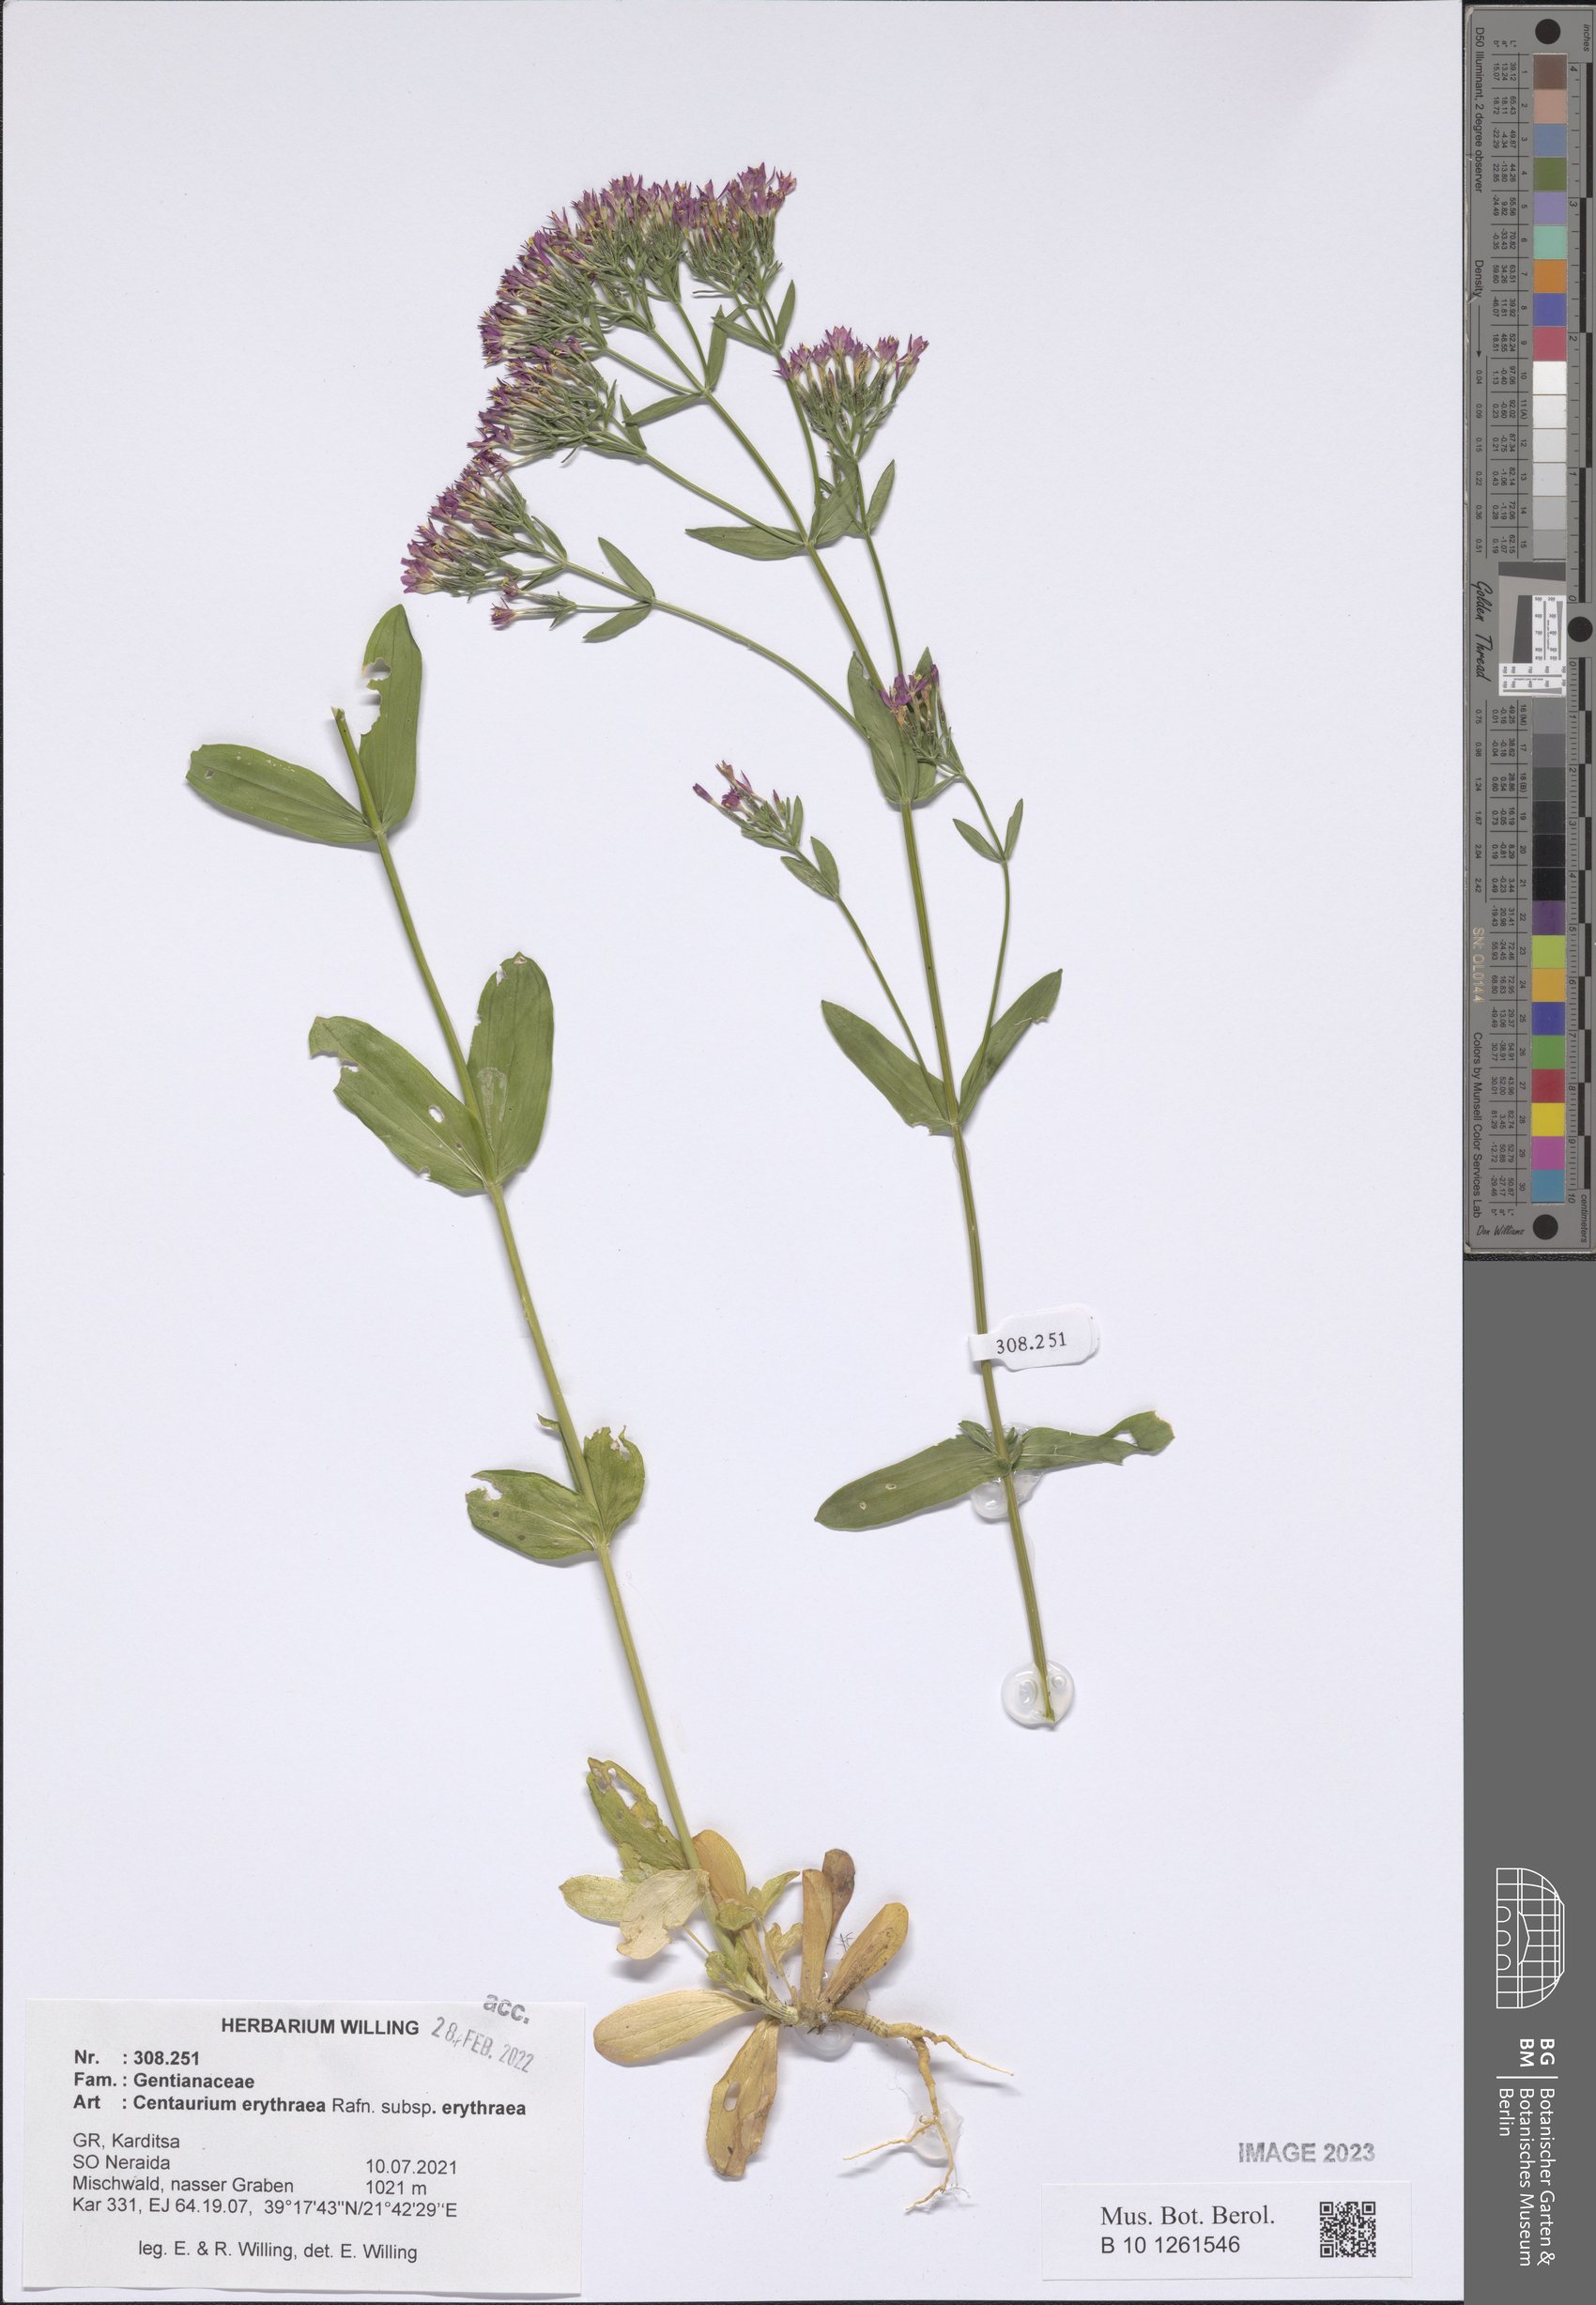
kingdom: Plantae
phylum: Tracheophyta
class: Magnoliopsida
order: Gentianales
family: Gentianaceae
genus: Centaurium
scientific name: Centaurium erythraea
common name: Common centaury
